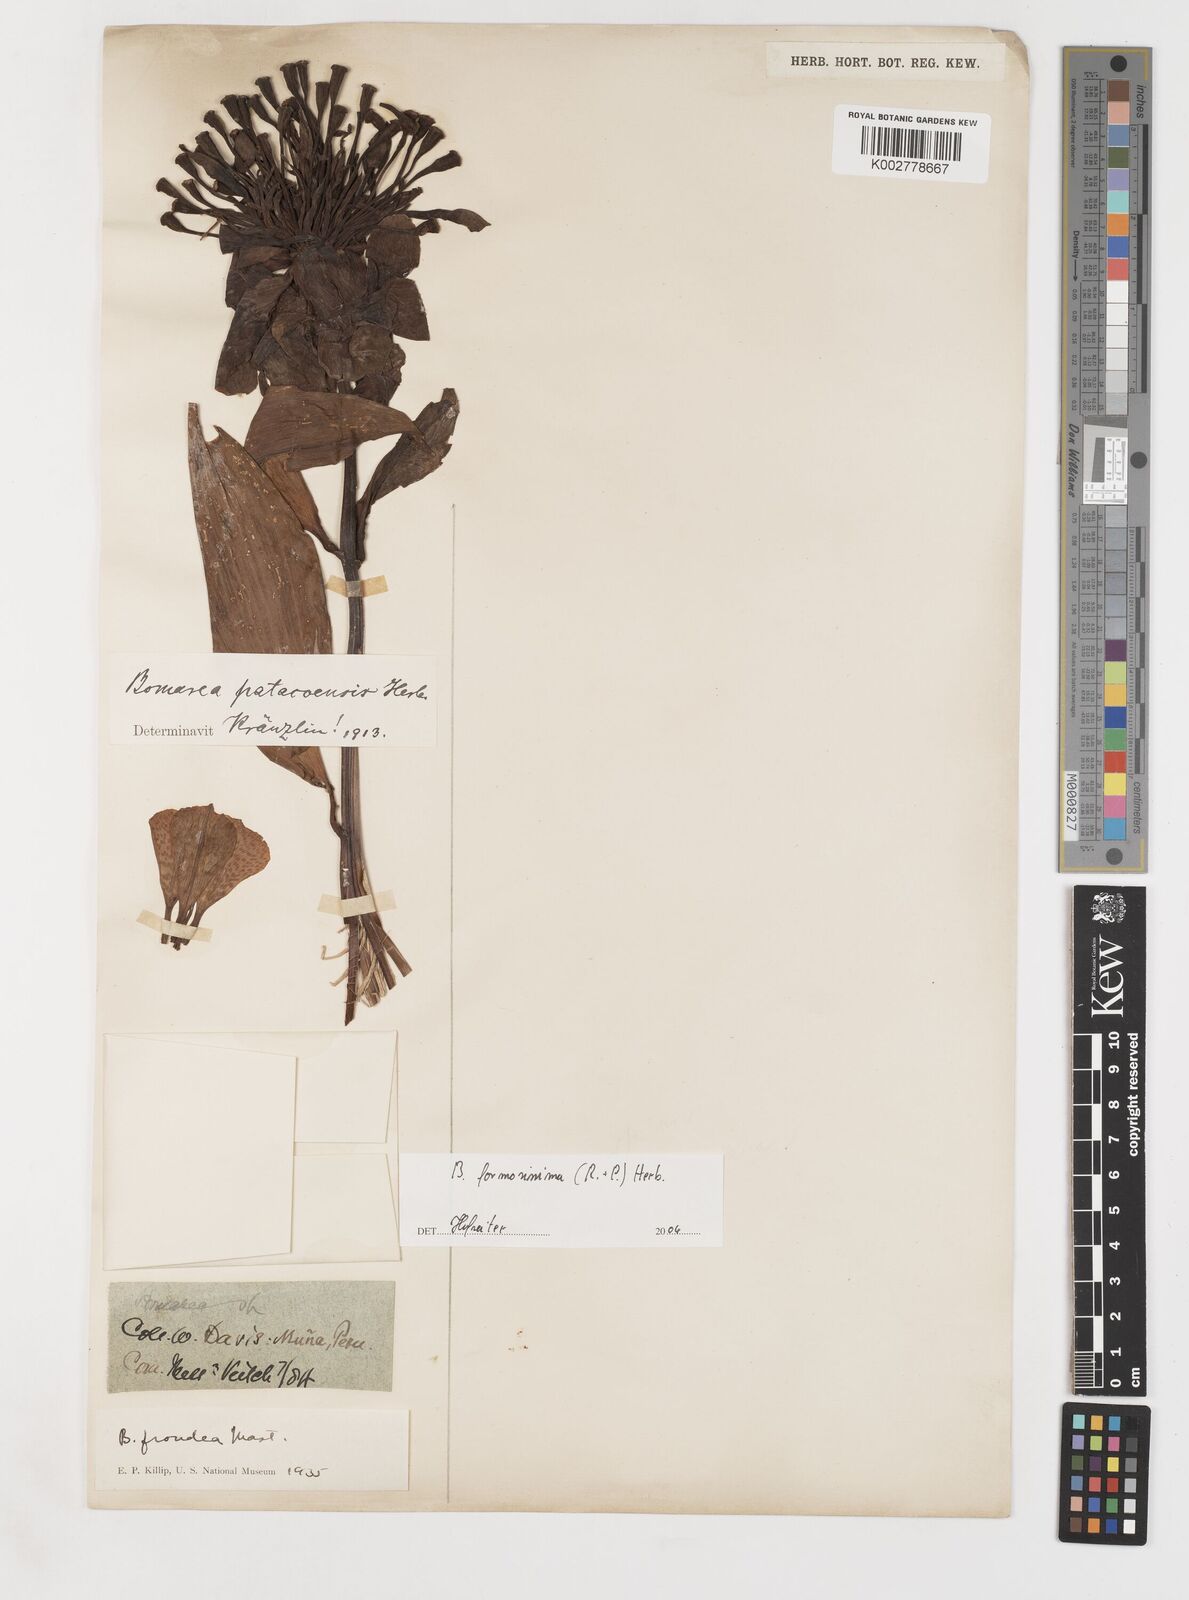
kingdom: Plantae
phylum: Tracheophyta
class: Liliopsida
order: Liliales
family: Alstroemeriaceae
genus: Bomarea
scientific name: Bomarea formosissima
